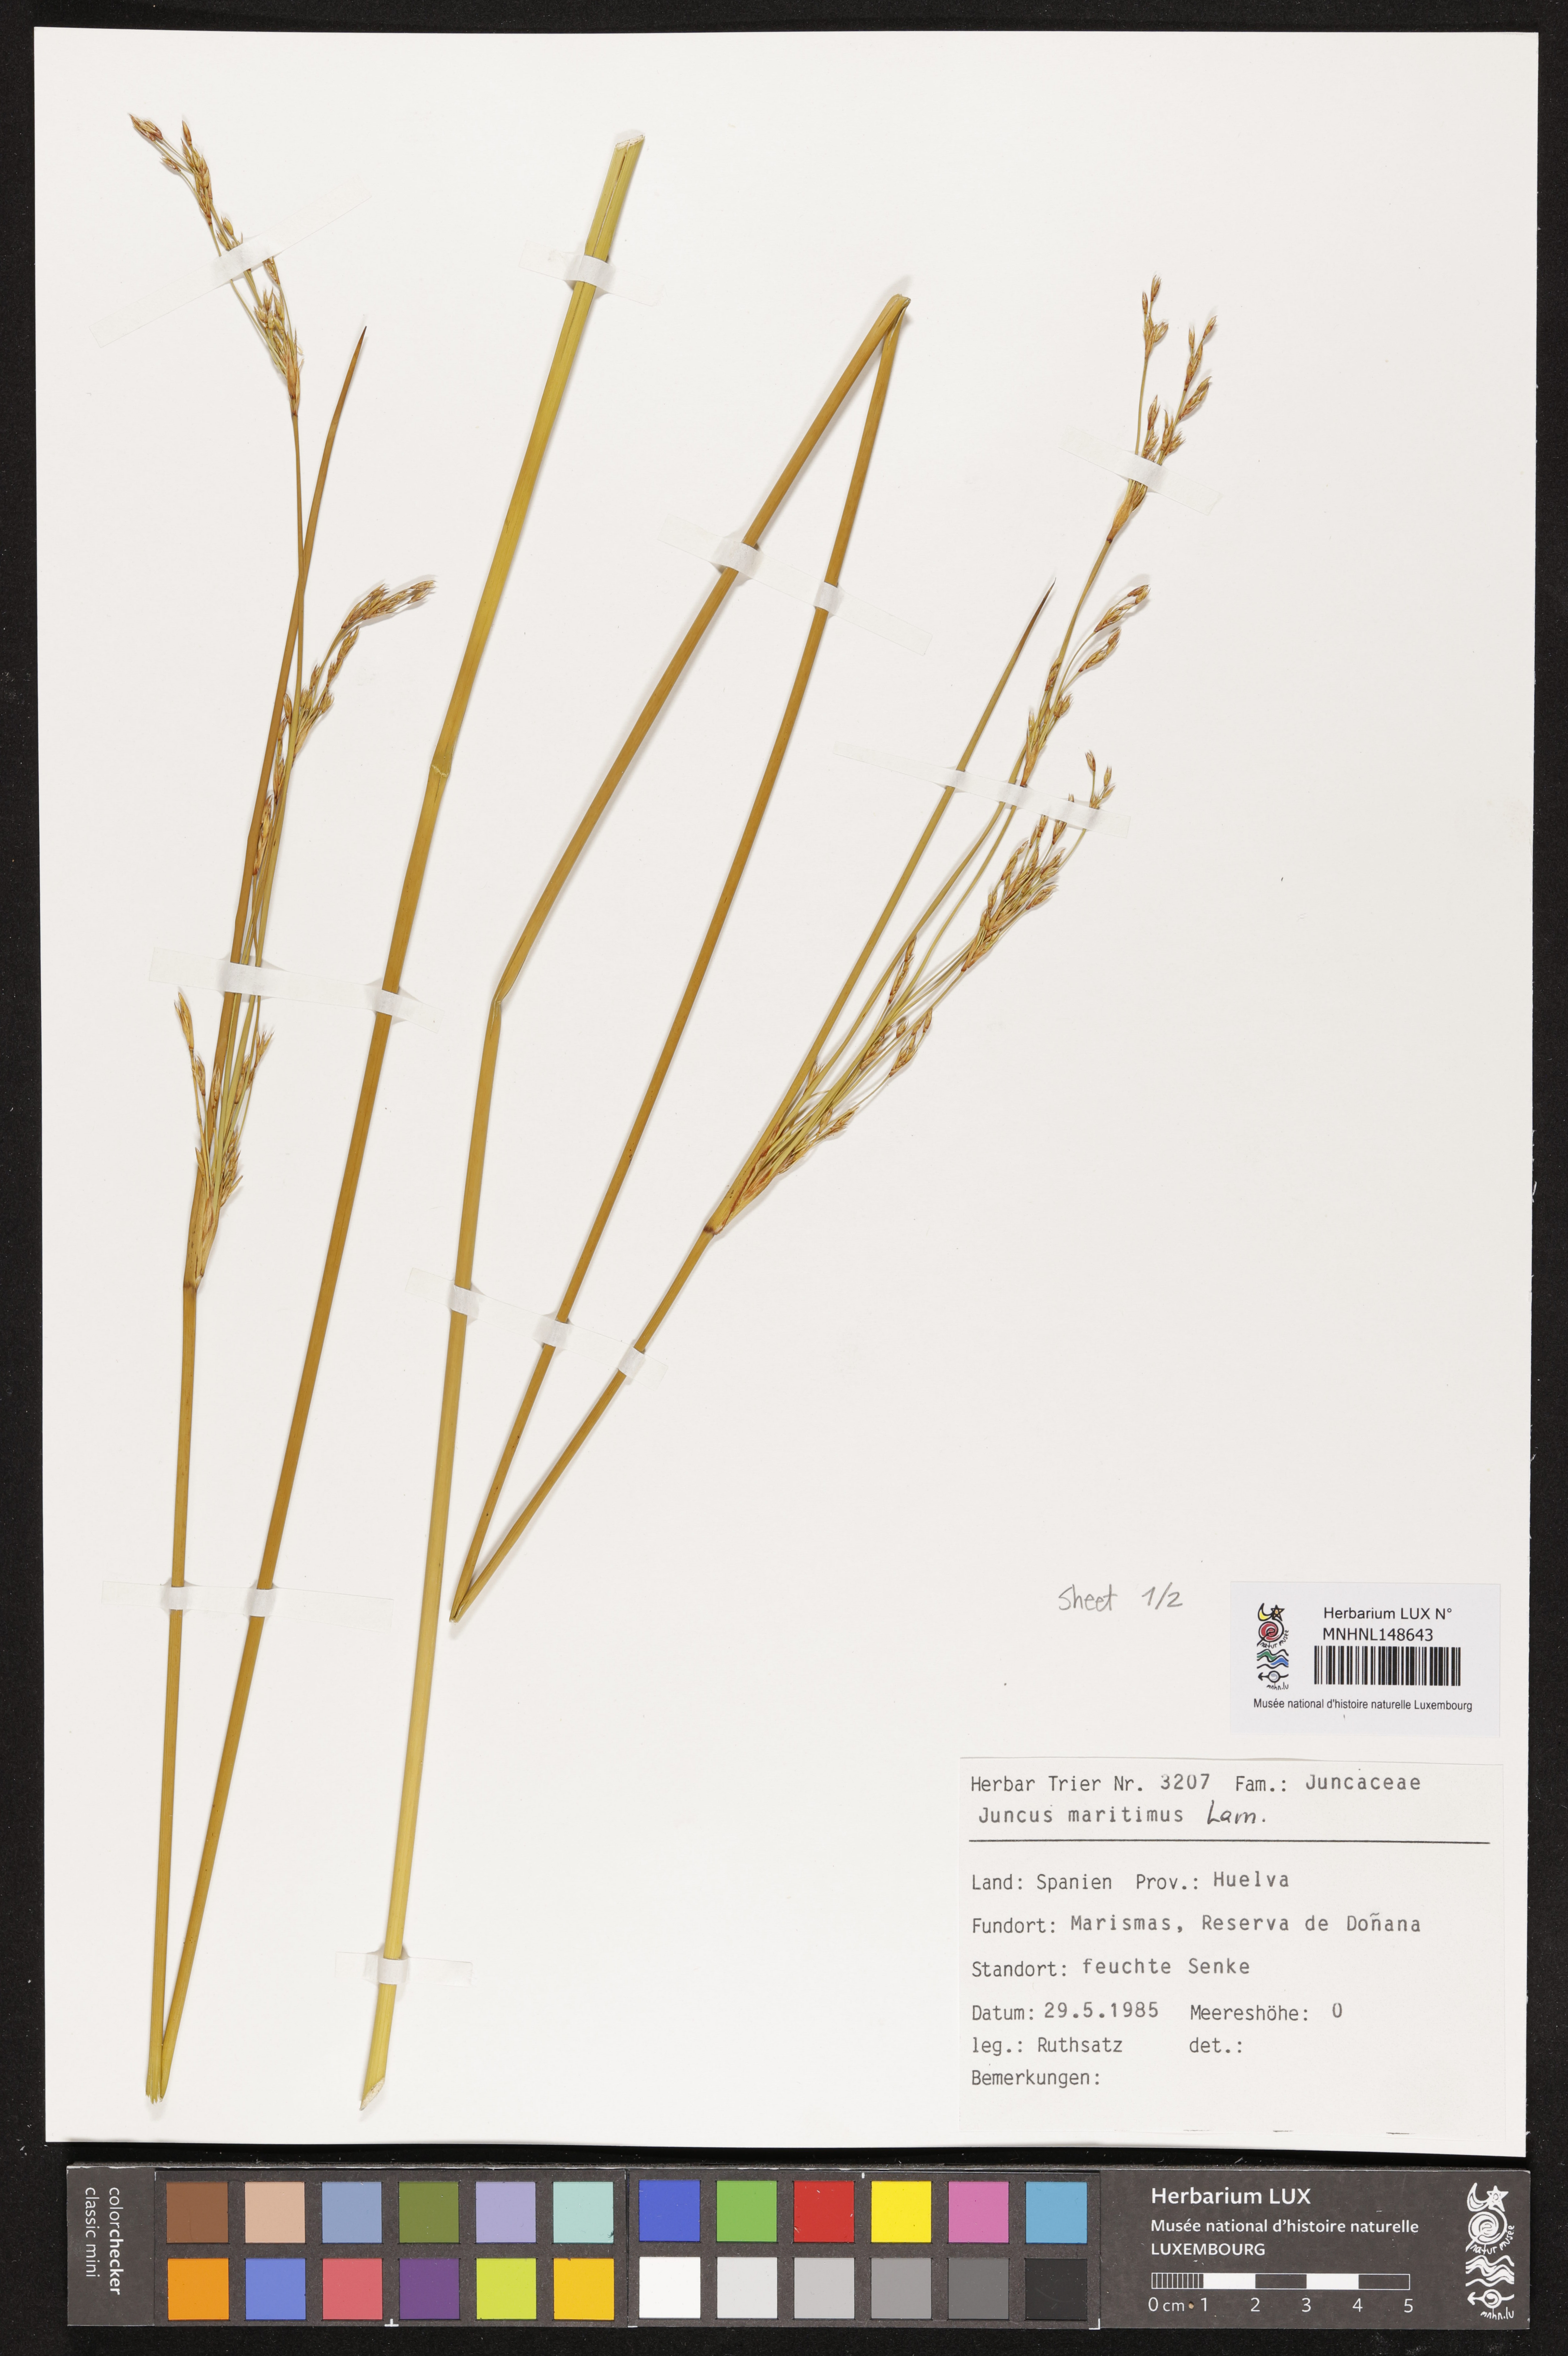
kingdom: Plantae
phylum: Tracheophyta
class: Liliopsida
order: Poales
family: Juncaceae
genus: Juncus
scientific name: Juncus maritimus
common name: Sea rush
